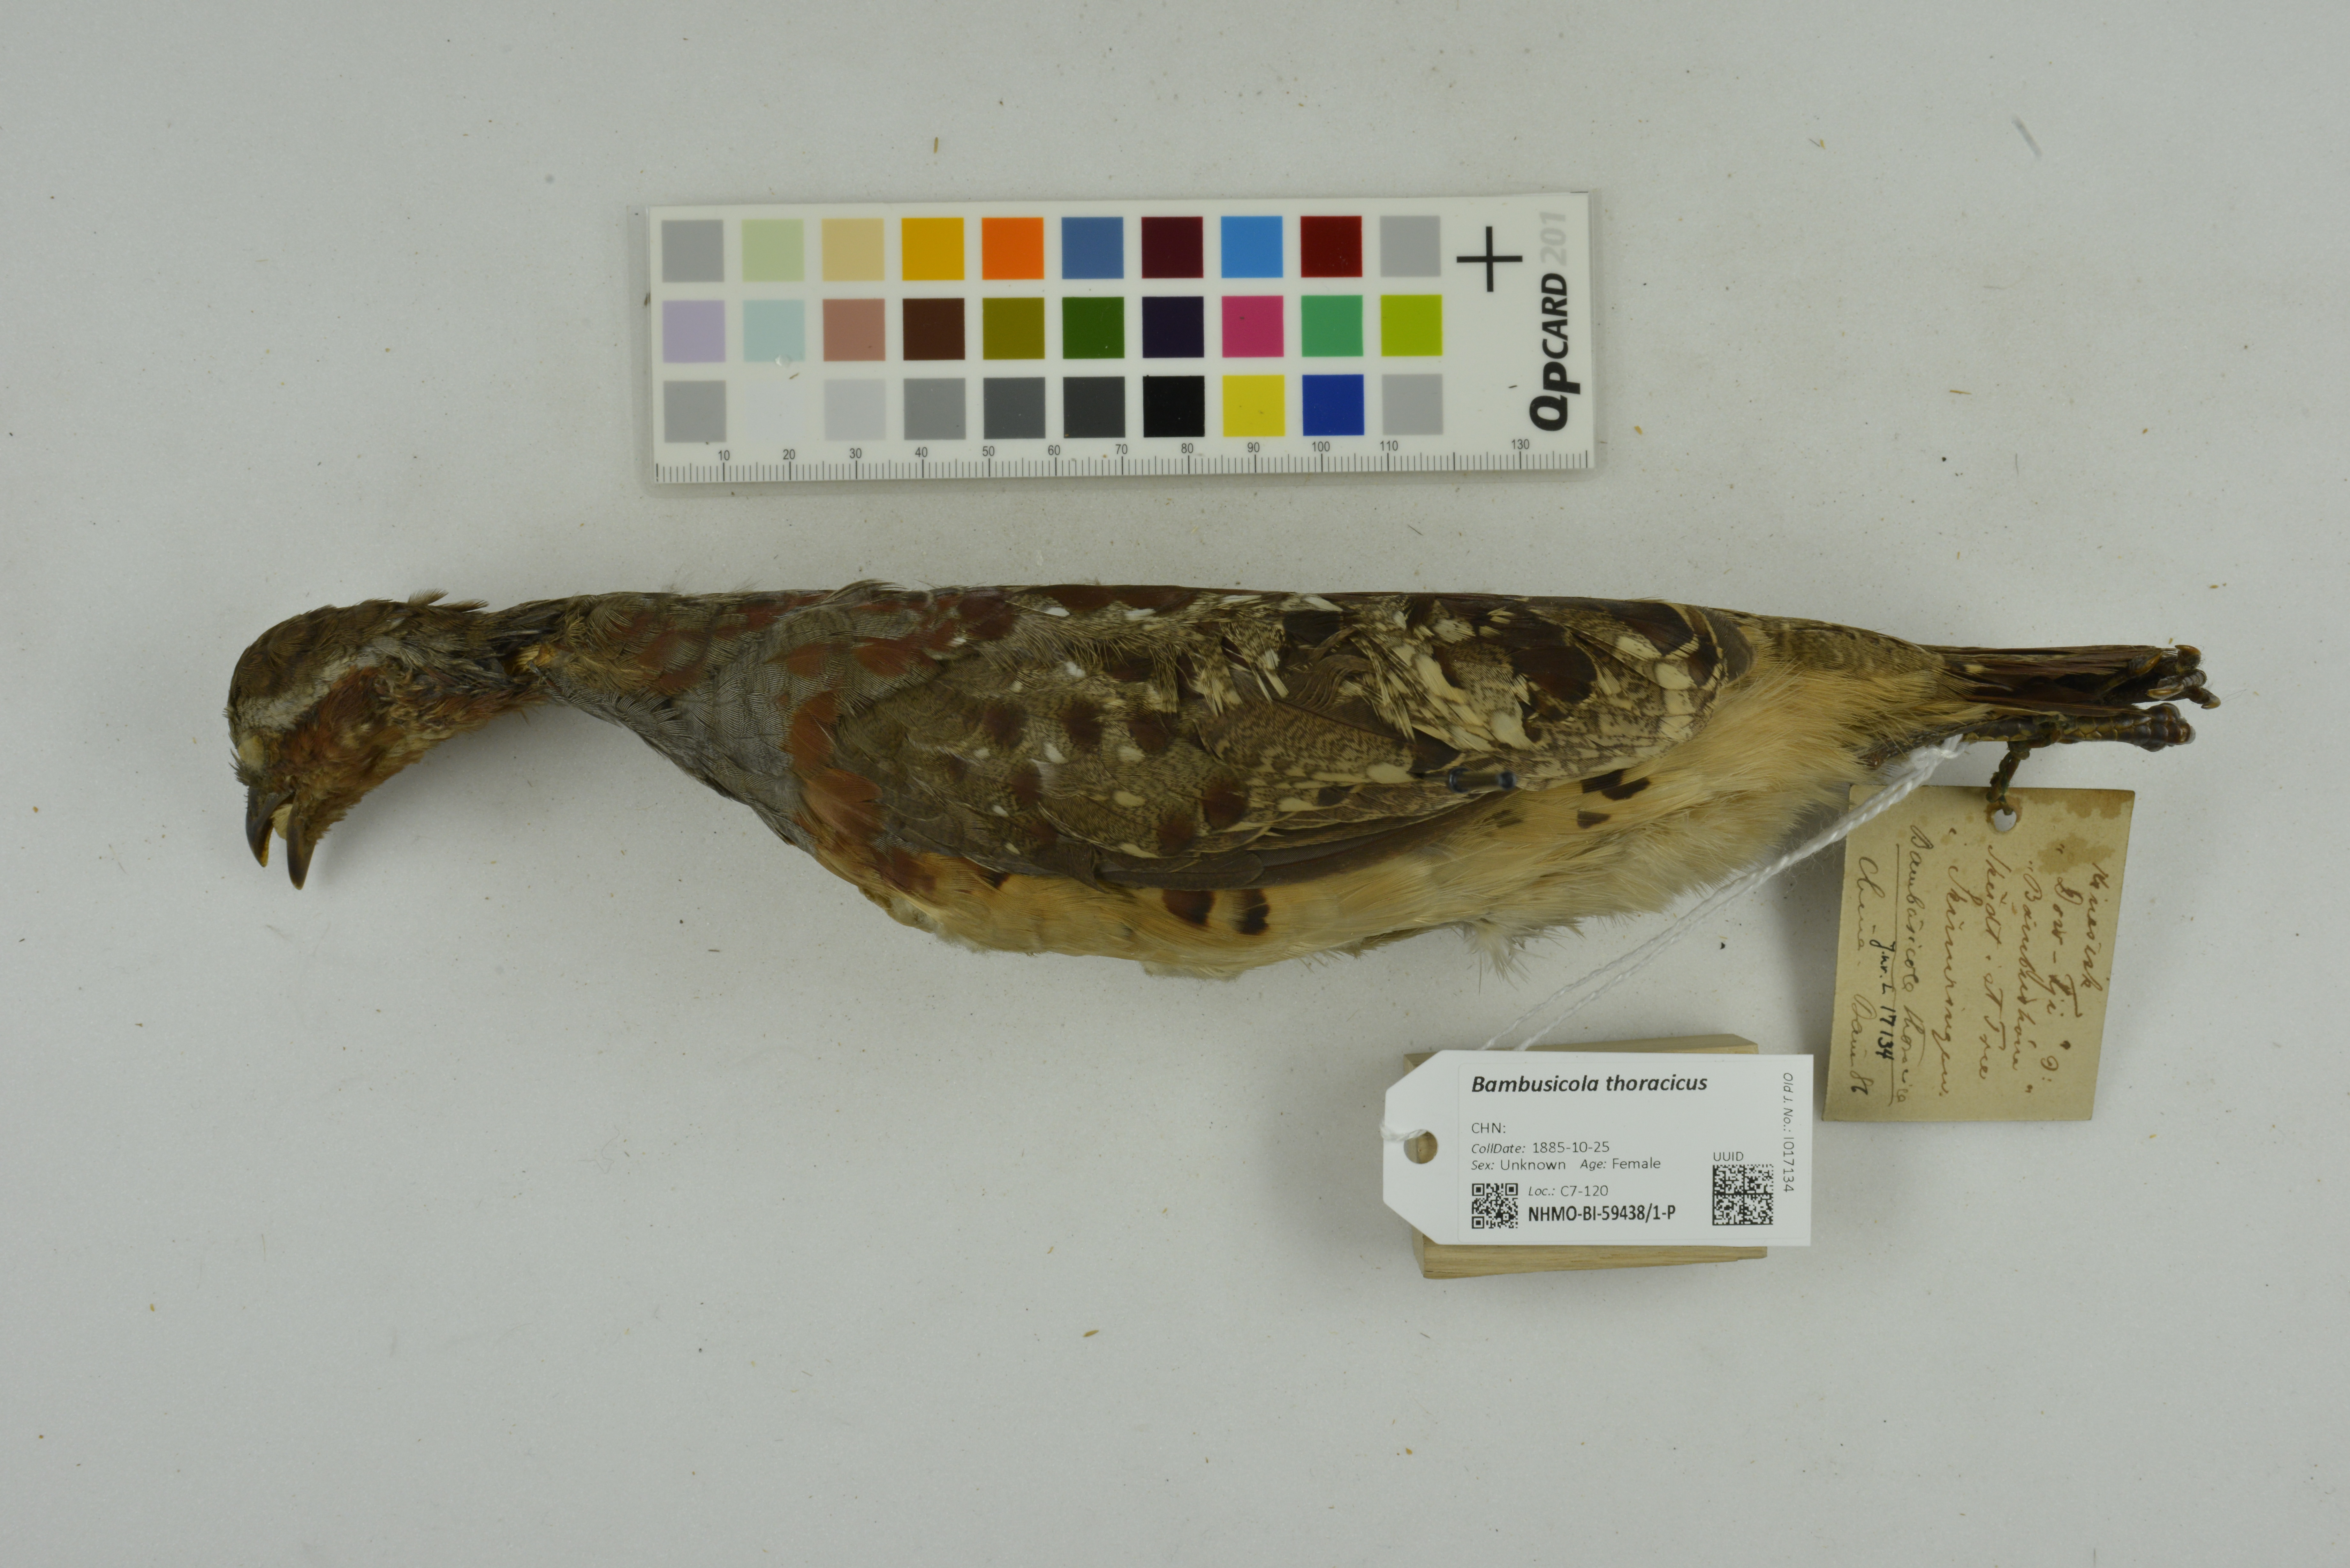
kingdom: Animalia
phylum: Chordata
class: Aves
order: Galliformes
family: Phasianidae
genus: Bambusicola
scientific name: Bambusicola thoracicus
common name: Chinese bamboo partridge
